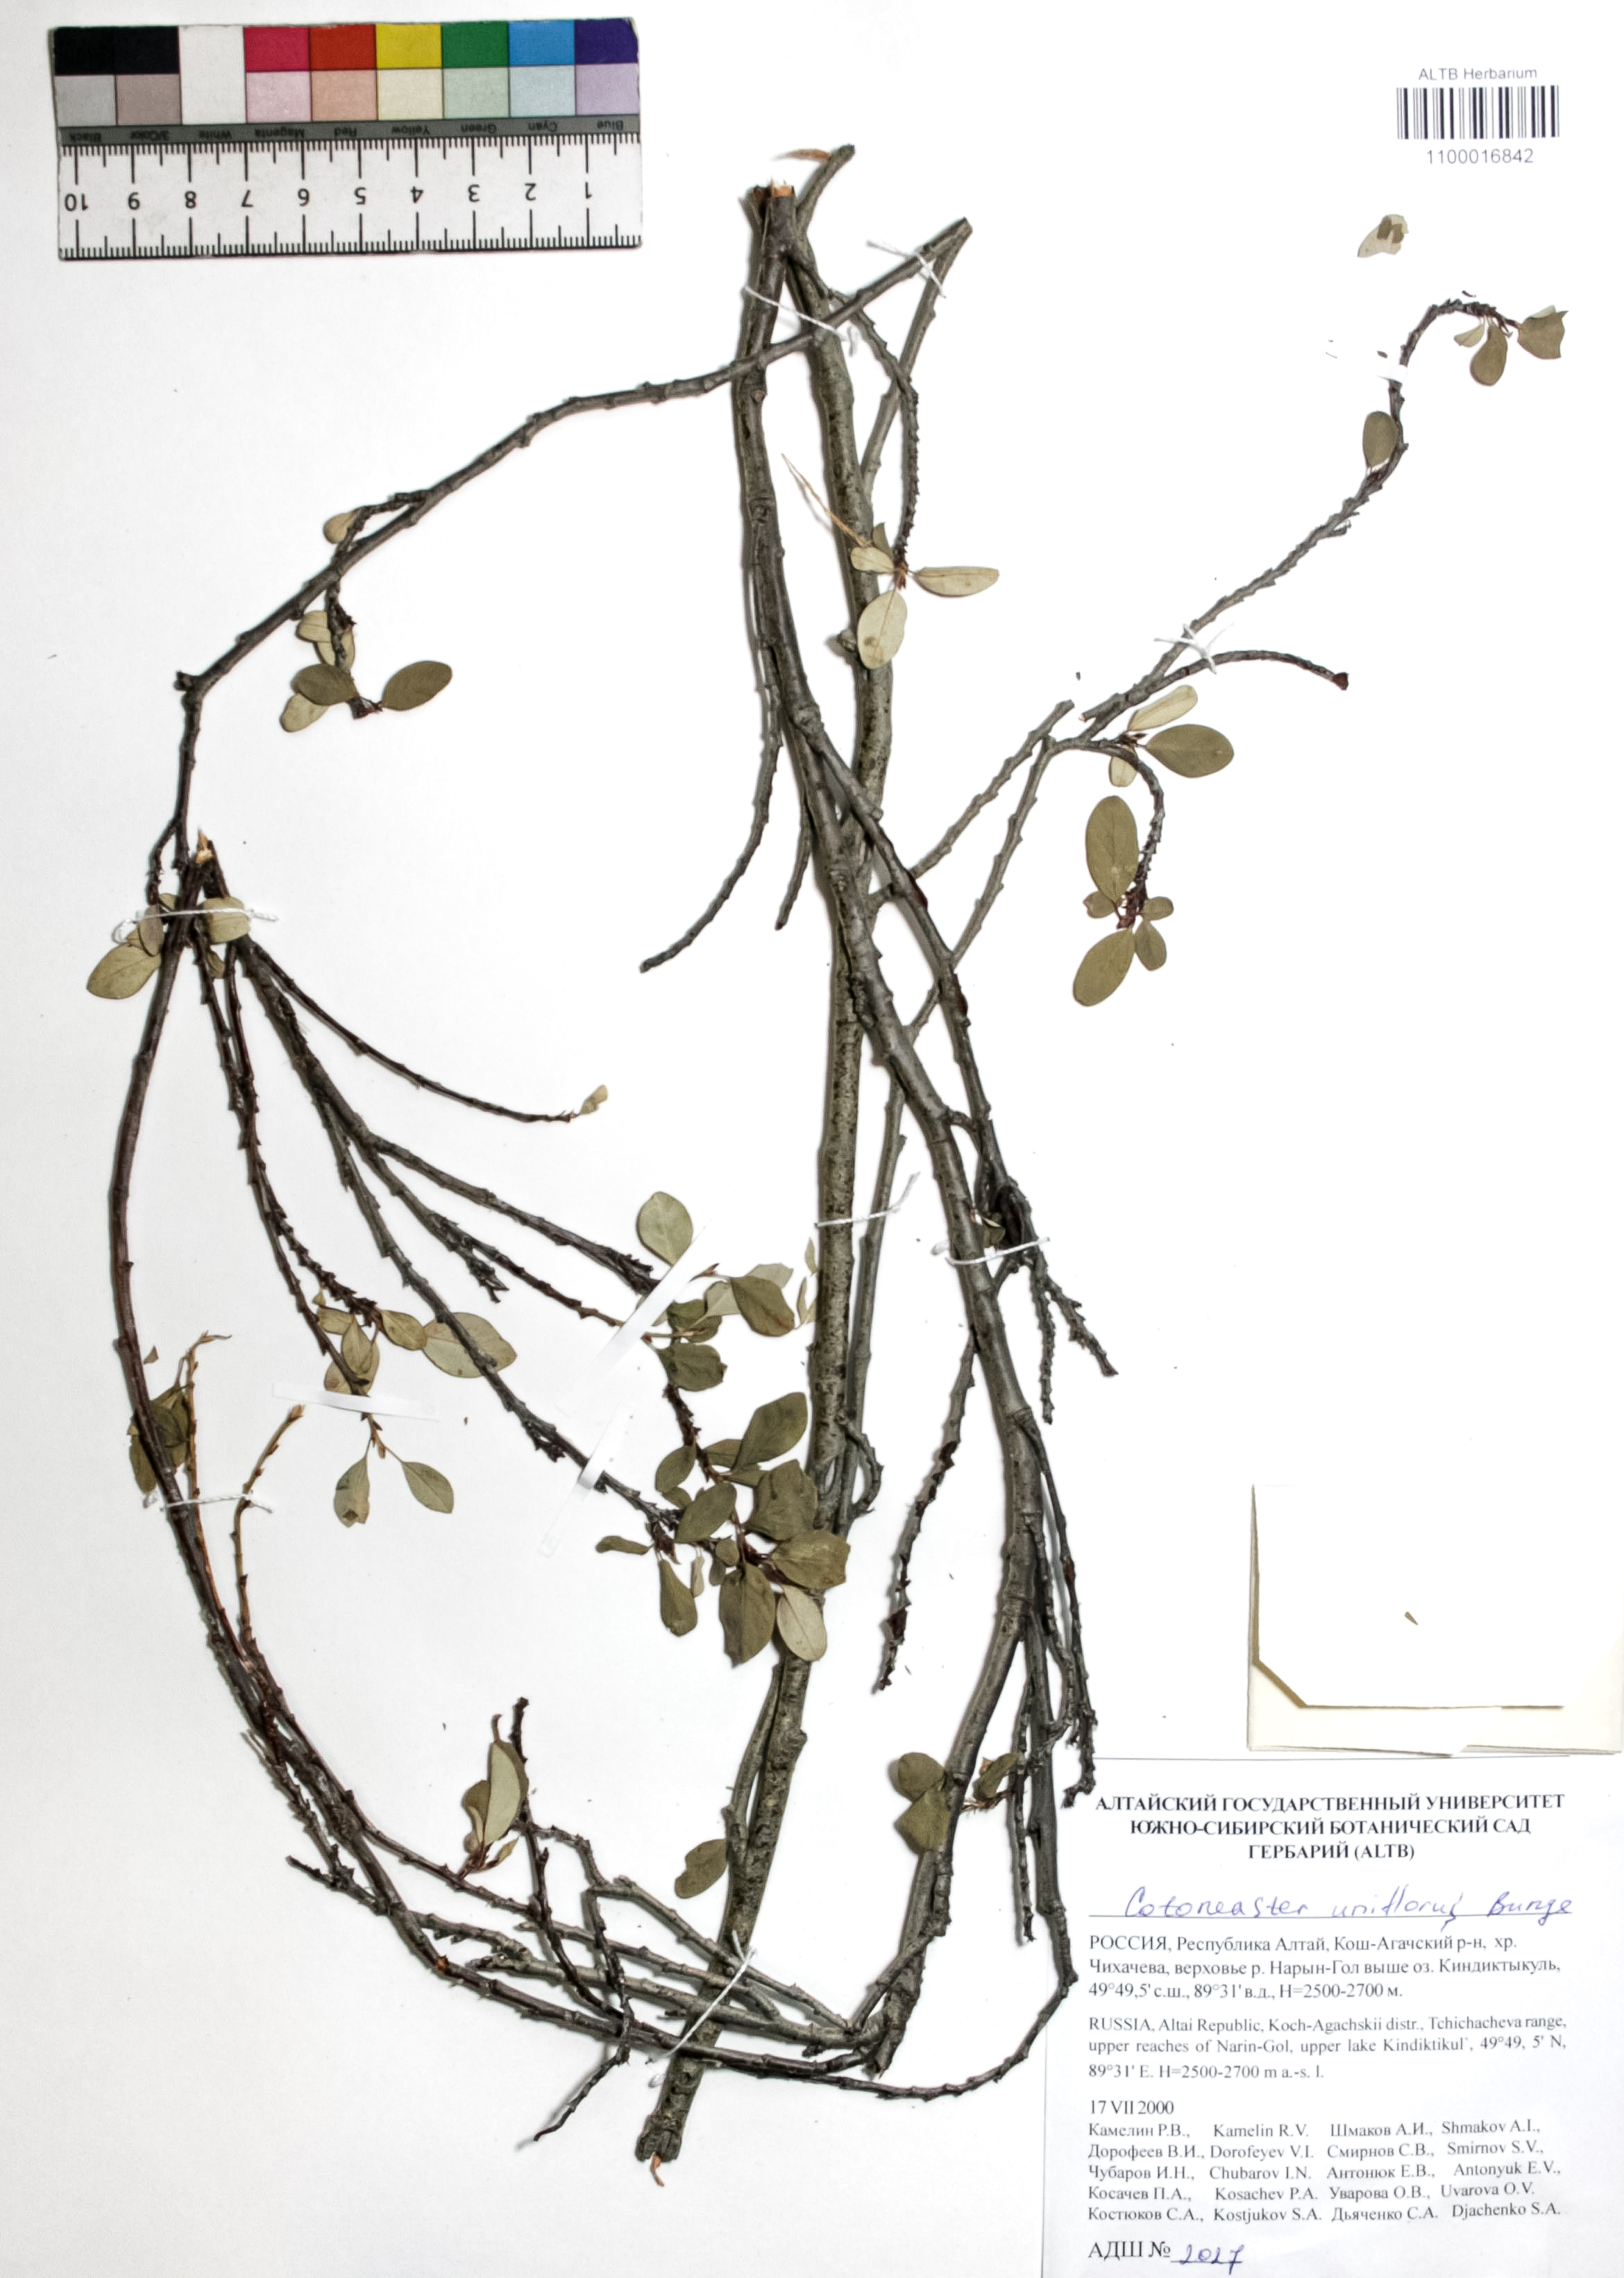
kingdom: Plantae
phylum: Tracheophyta
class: Magnoliopsida
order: Rosales
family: Rosaceae
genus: Cotoneaster
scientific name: Cotoneaster uniflorus
